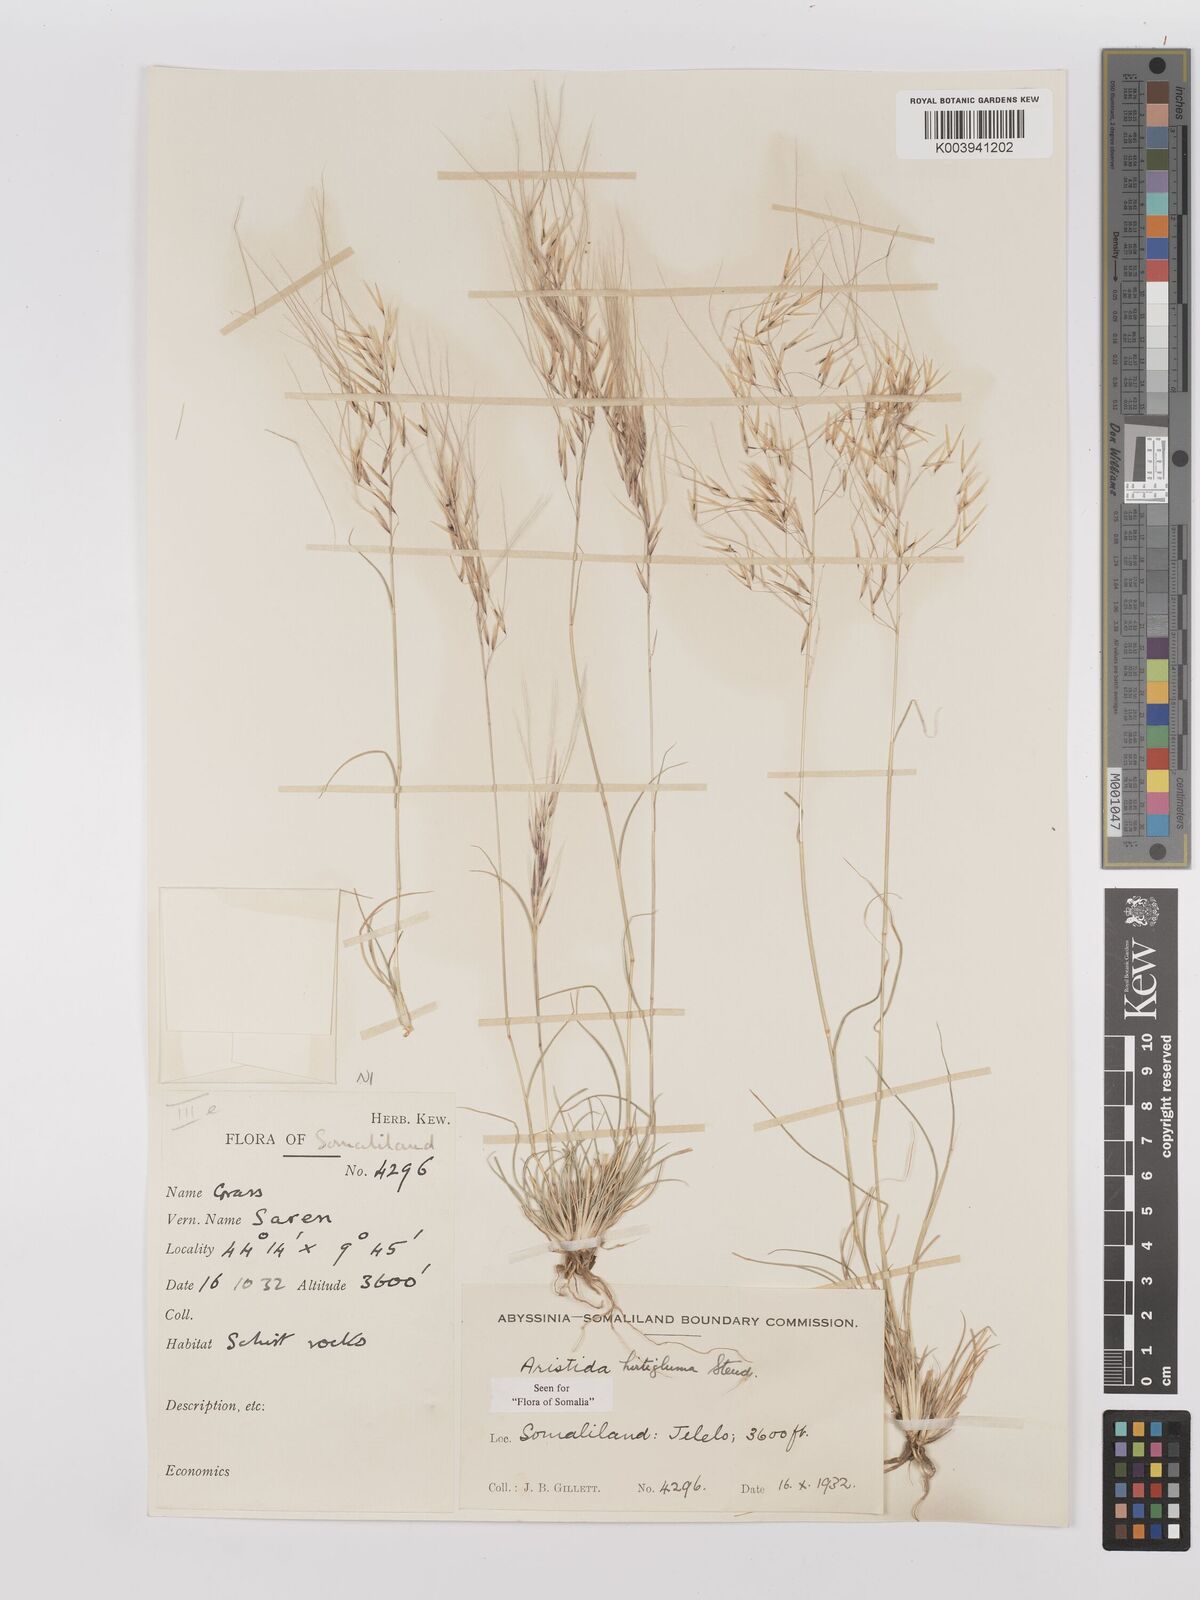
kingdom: Plantae
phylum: Tracheophyta
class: Liliopsida
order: Poales
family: Poaceae
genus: Stipagrostis
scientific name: Stipagrostis hirtigluma
